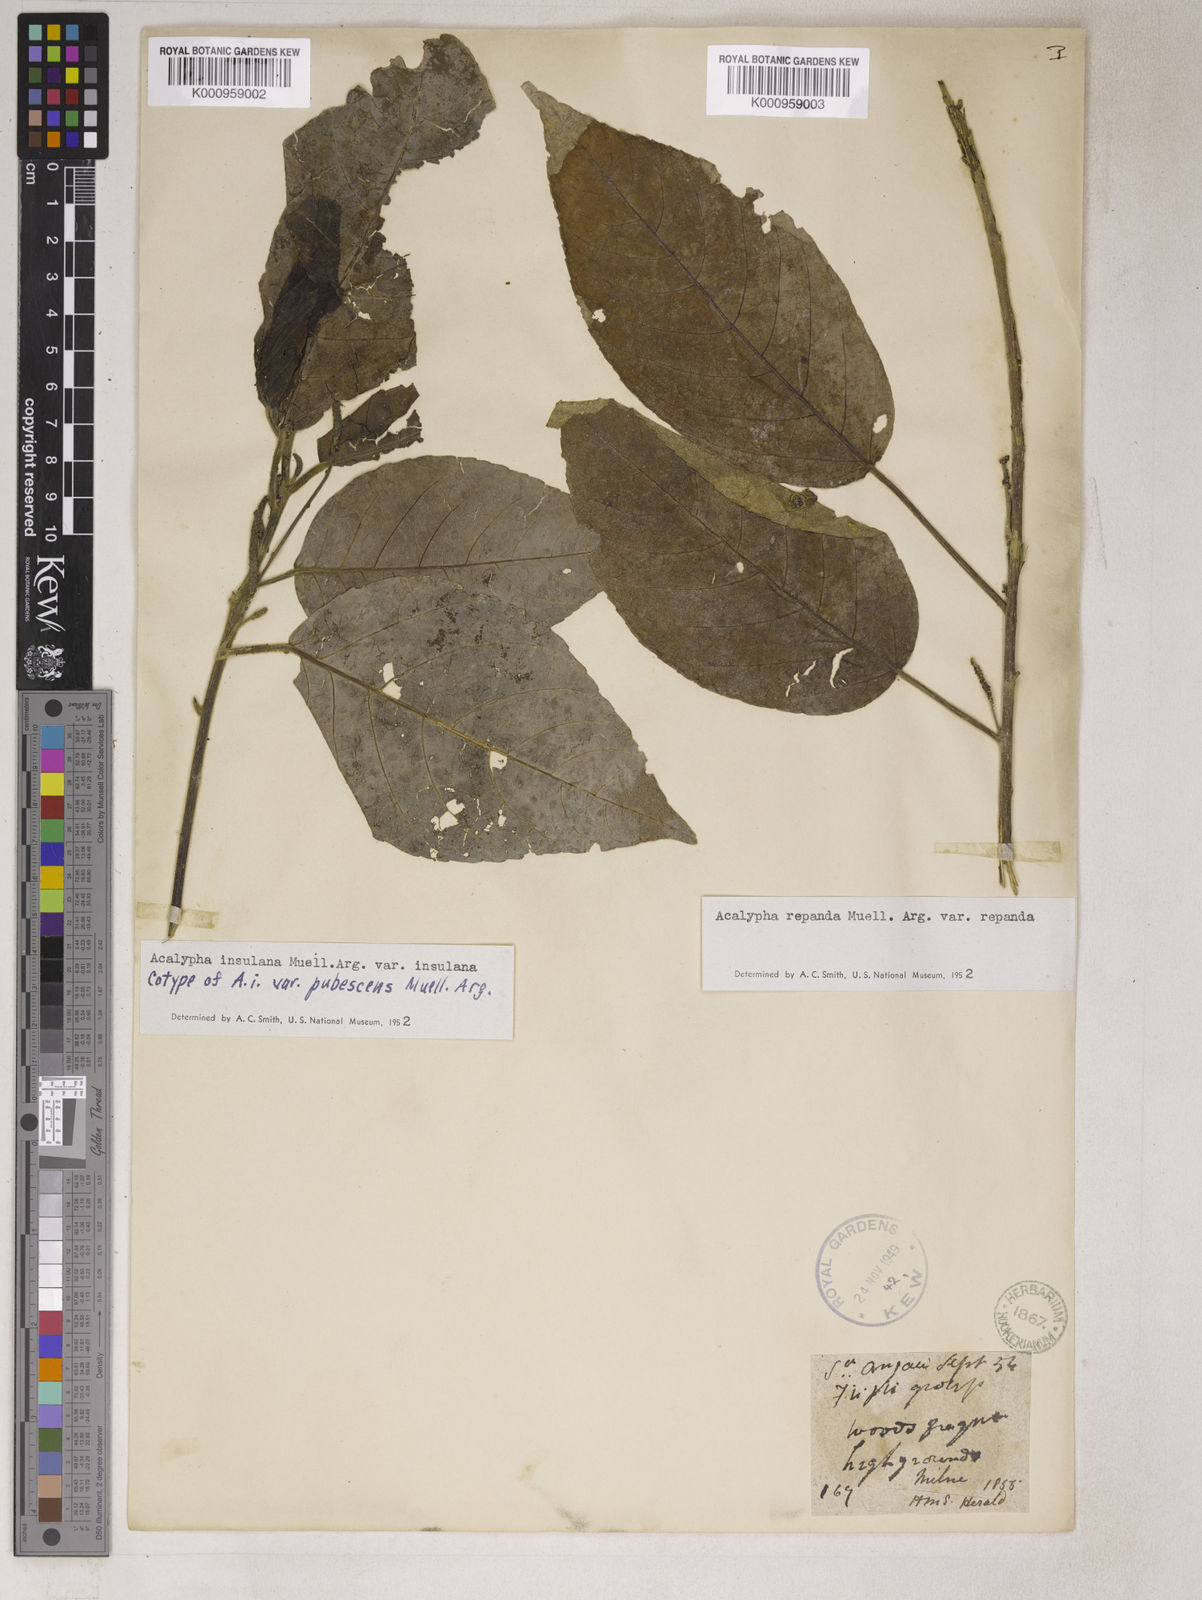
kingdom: Plantae
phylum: Tracheophyta
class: Magnoliopsida
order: Malpighiales
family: Euphorbiaceae
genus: Acalypha
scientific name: Acalypha
